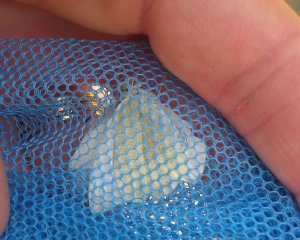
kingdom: Animalia
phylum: Arthropoda
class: Insecta
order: Lepidoptera
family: Pieridae
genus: Pieris
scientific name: Pieris rapae
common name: Cabbage White
